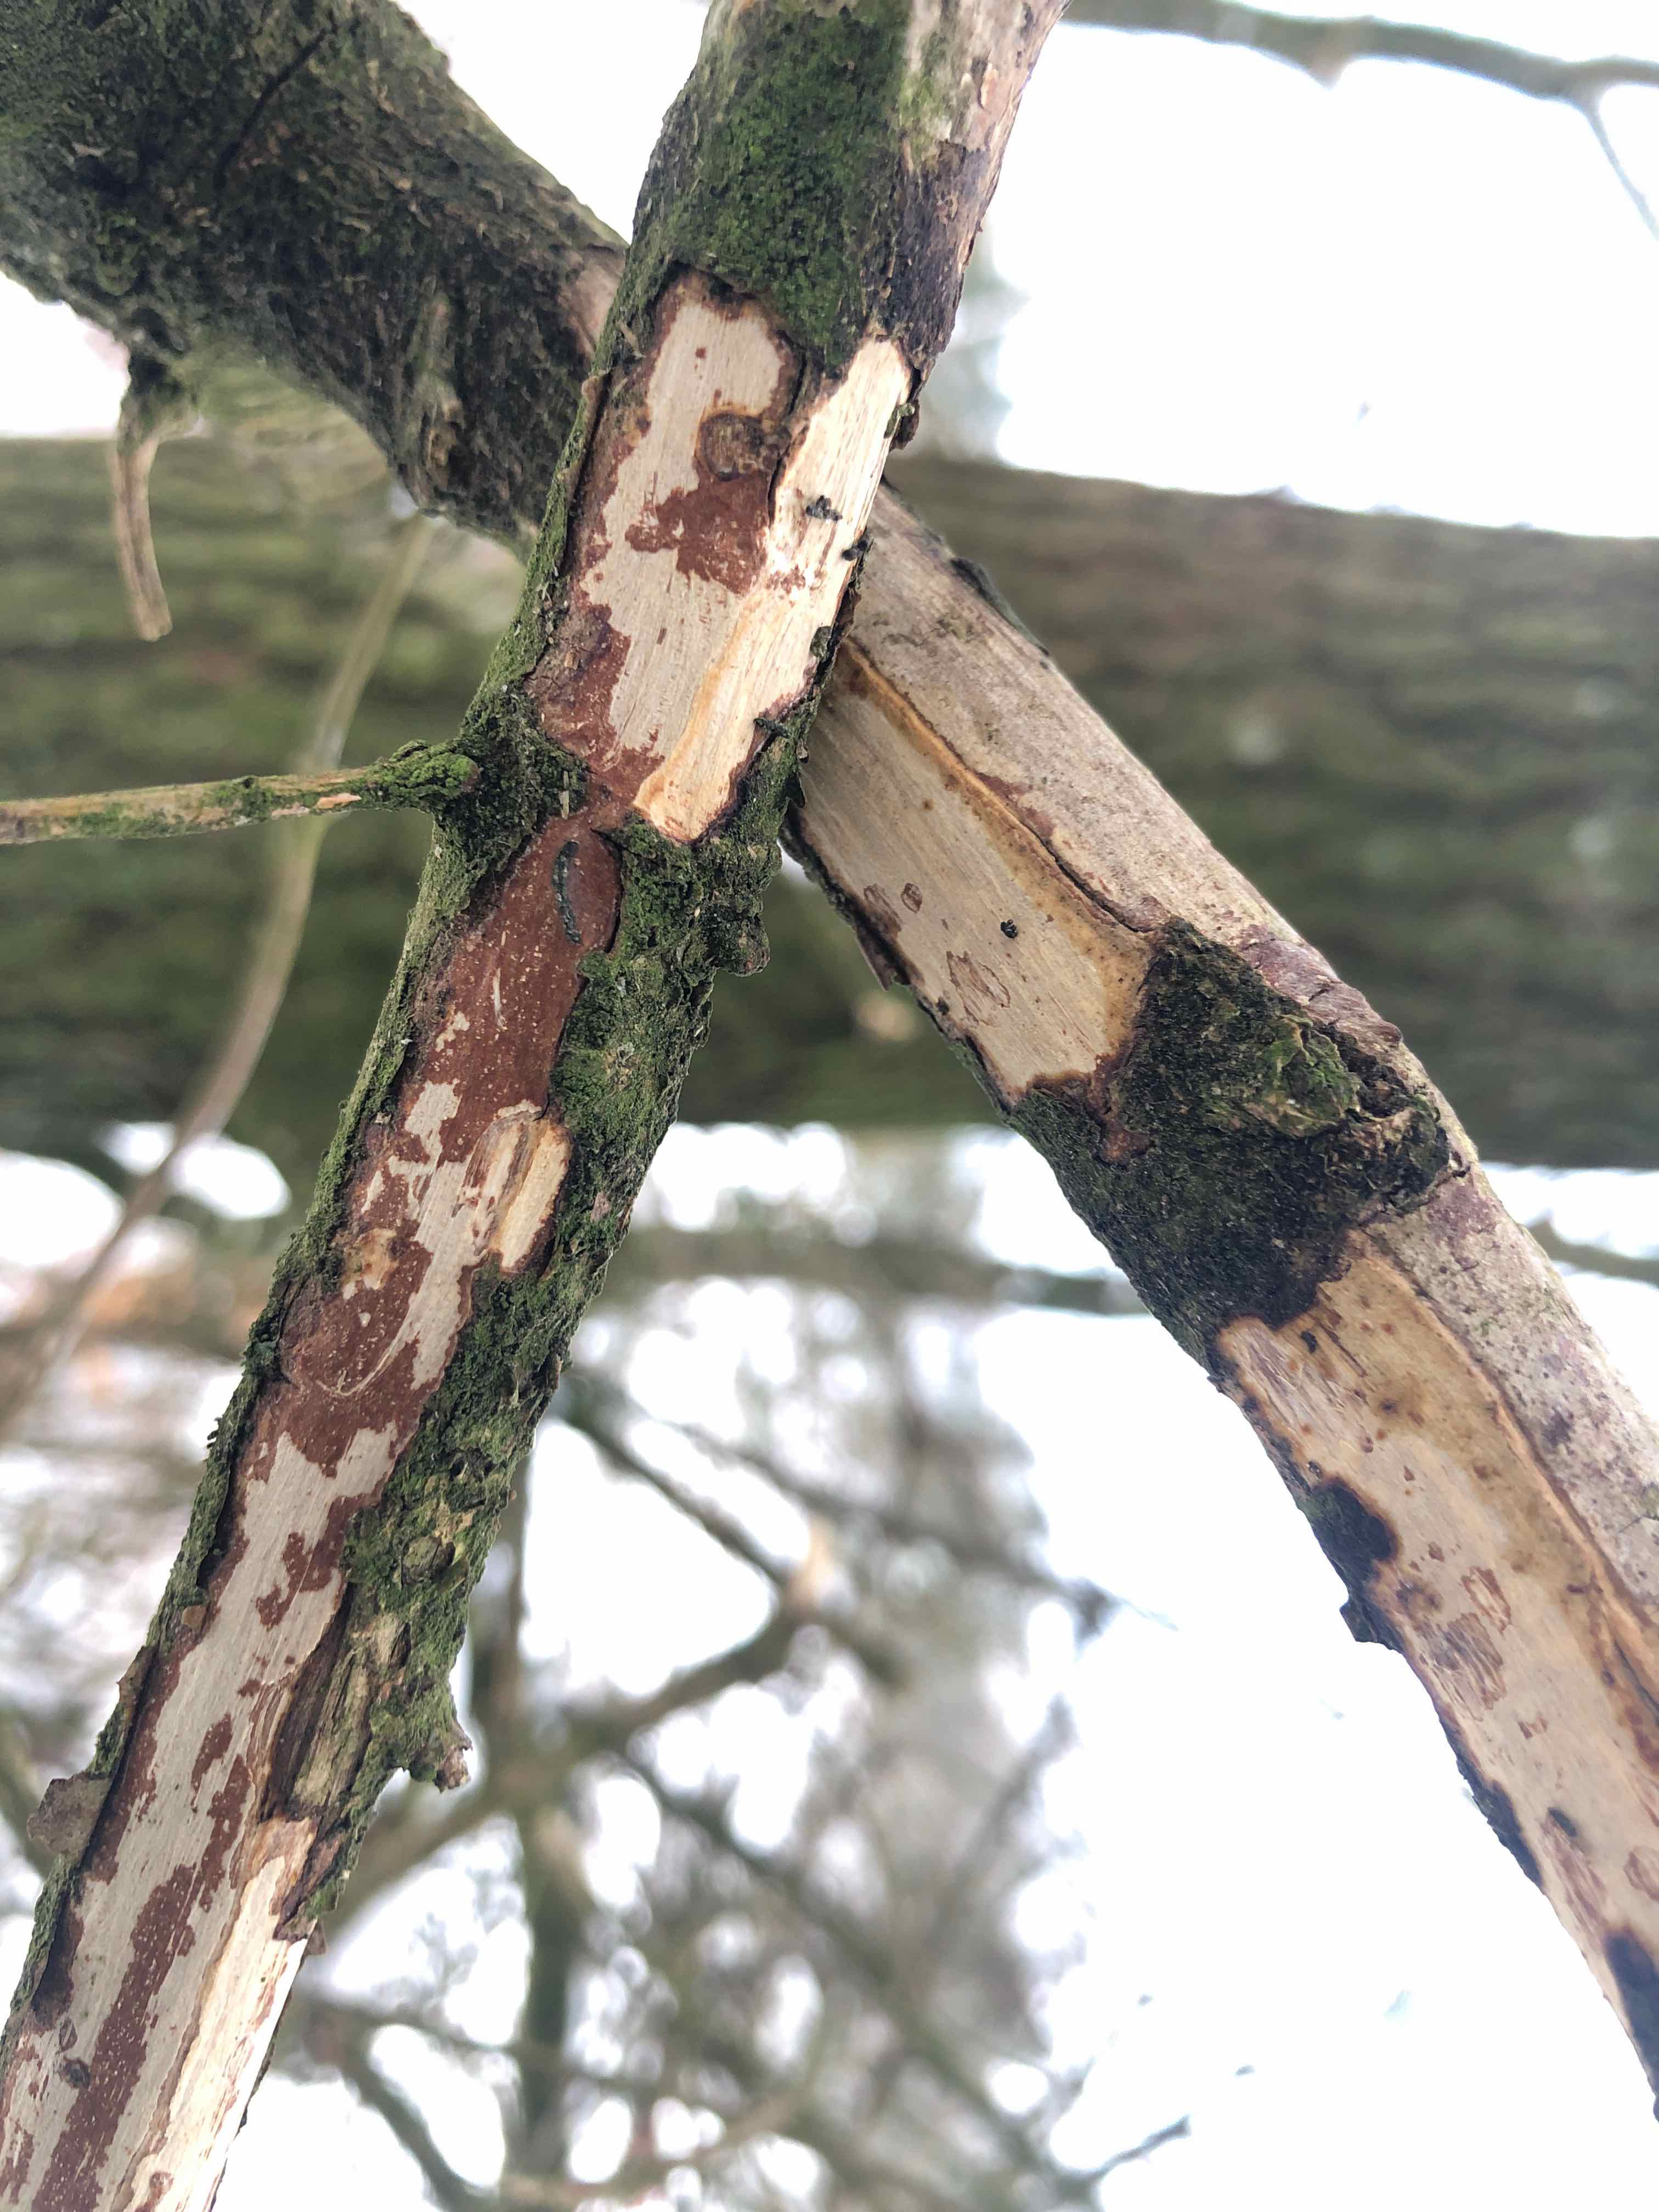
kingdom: Fungi
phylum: Basidiomycota
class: Agaricomycetes
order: Corticiales
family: Vuilleminiaceae
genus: Vuilleminia
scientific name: Vuilleminia comedens
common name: almindelig barksprænger
